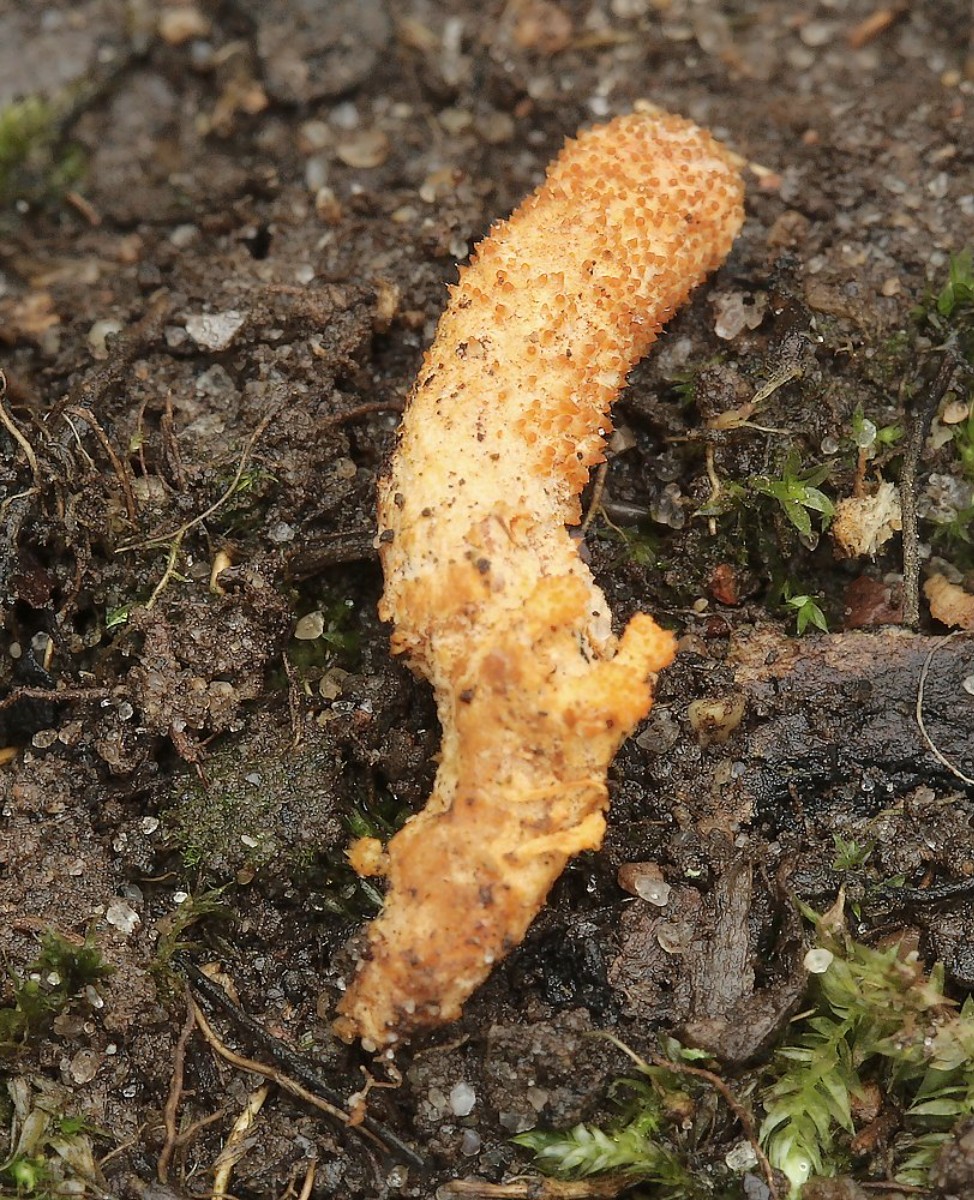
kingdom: Fungi
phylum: Ascomycota
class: Sordariomycetes
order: Hypocreales
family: Cordycipitaceae
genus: Cordyceps
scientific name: Cordyceps militaris
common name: puppe-snyltekølle
